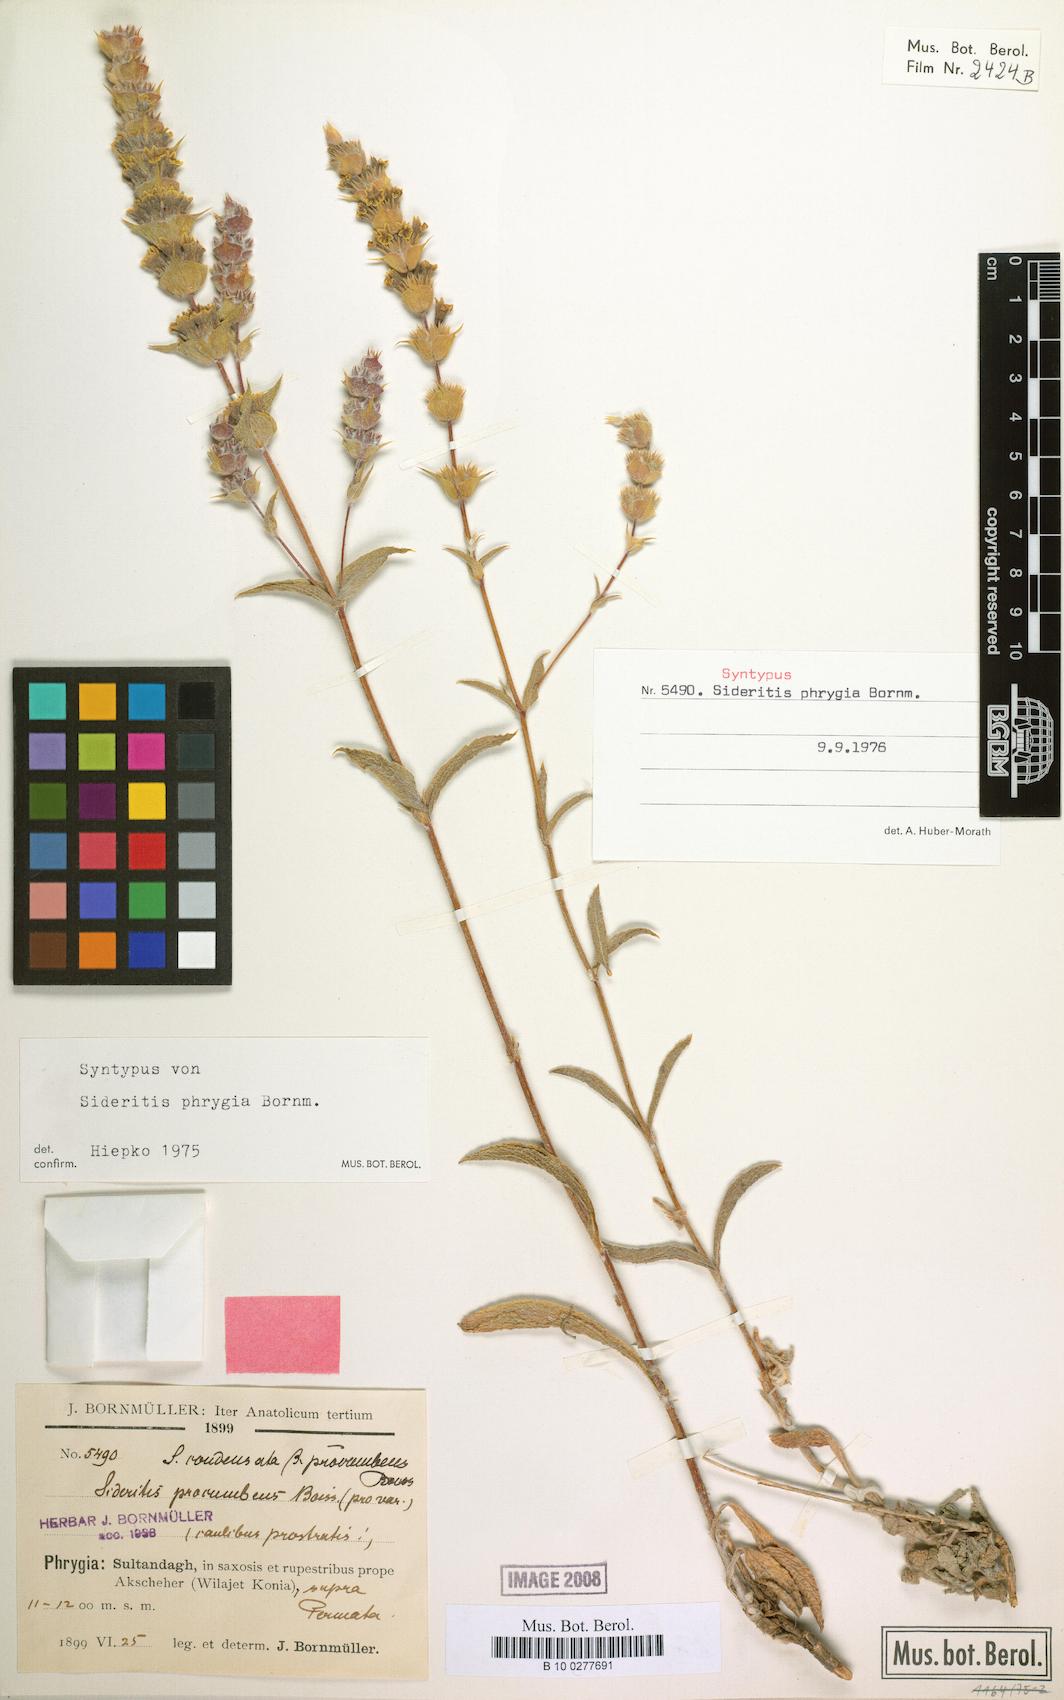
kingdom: Plantae
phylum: Tracheophyta
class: Magnoliopsida
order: Lamiales
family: Lamiaceae
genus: Sideritis
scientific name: Sideritis phrygia
